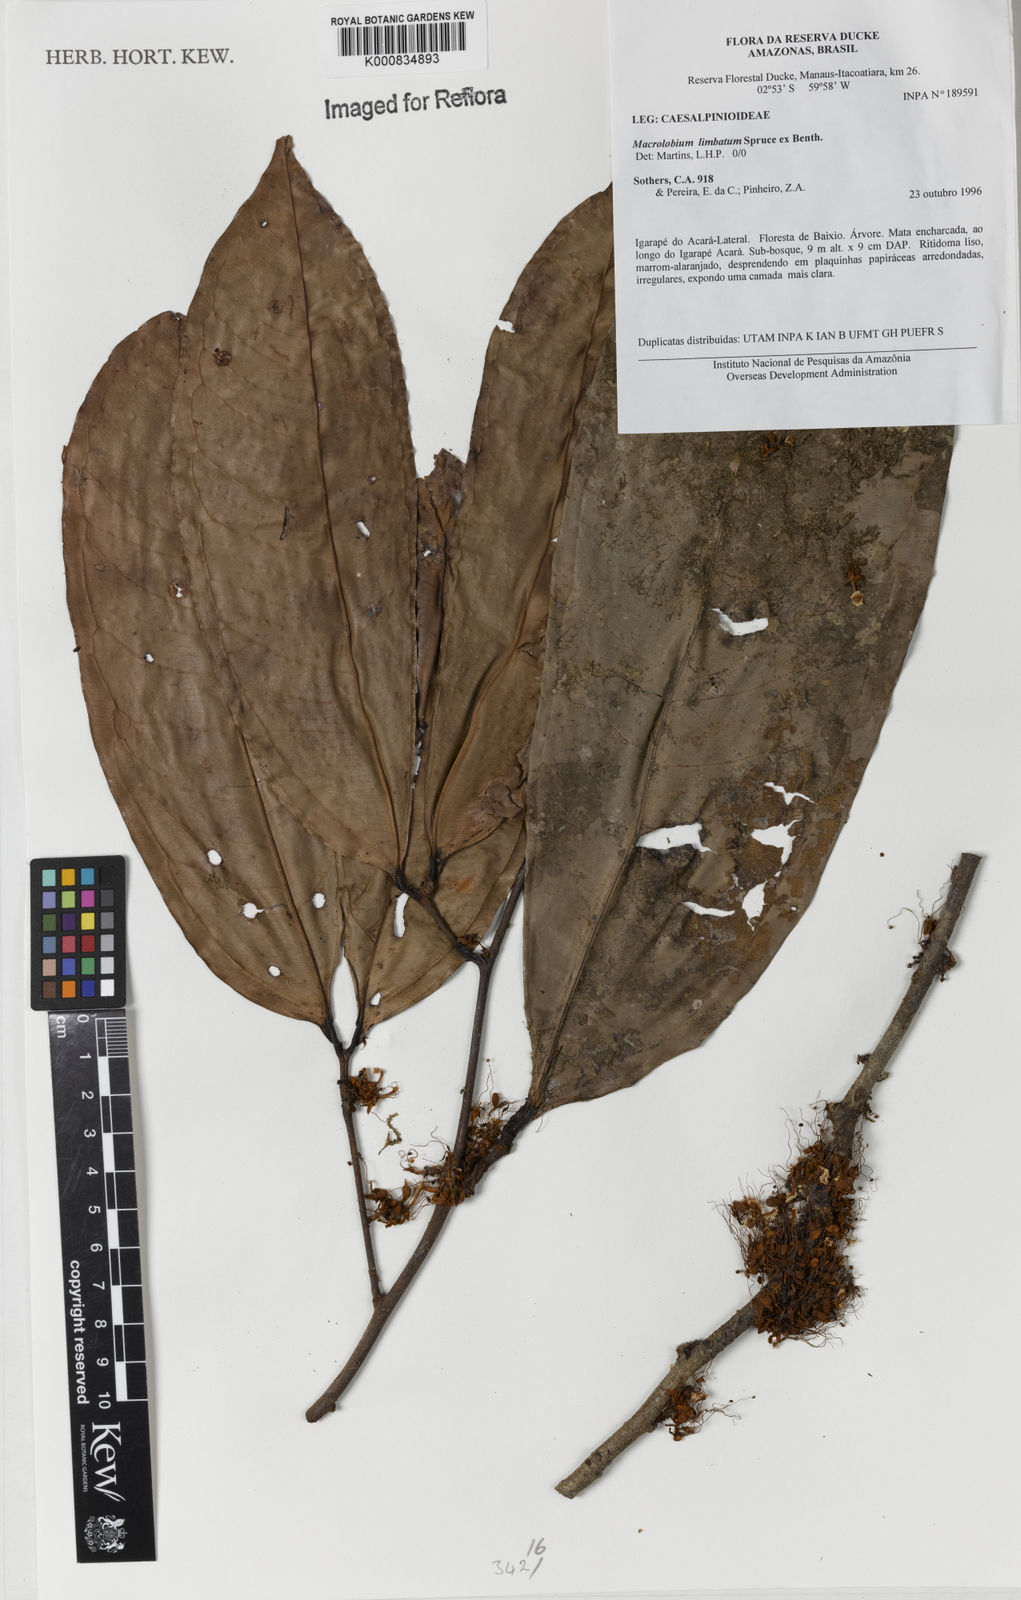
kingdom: Plantae
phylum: Tracheophyta
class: Magnoliopsida
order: Fabales
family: Fabaceae
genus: Macrolobium
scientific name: Macrolobium limbatum
